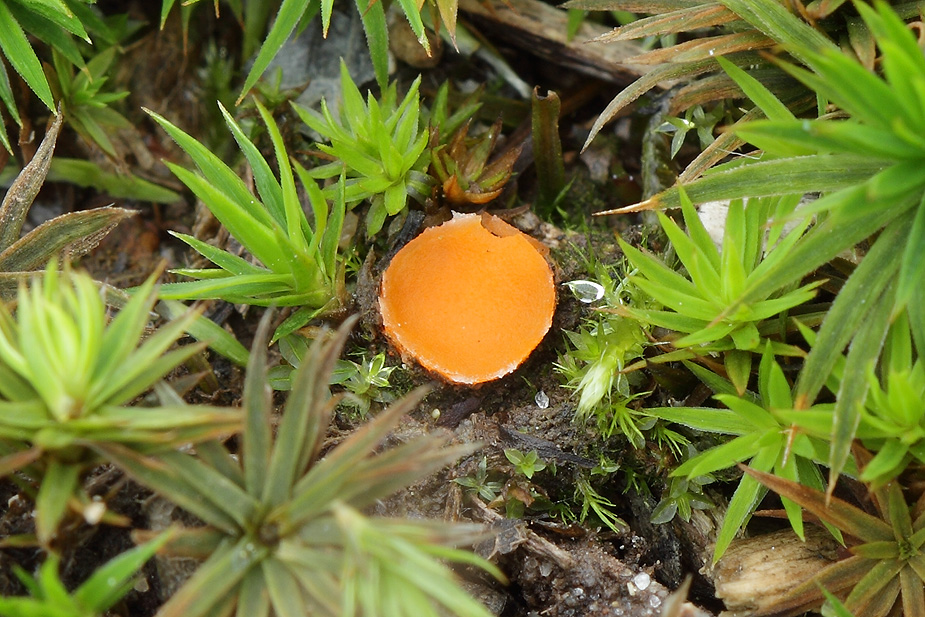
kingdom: Fungi
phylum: Ascomycota
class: Pezizomycetes
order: Pezizales
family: Pyronemataceae
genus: Neottiella
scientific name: Neottiella hetieri
